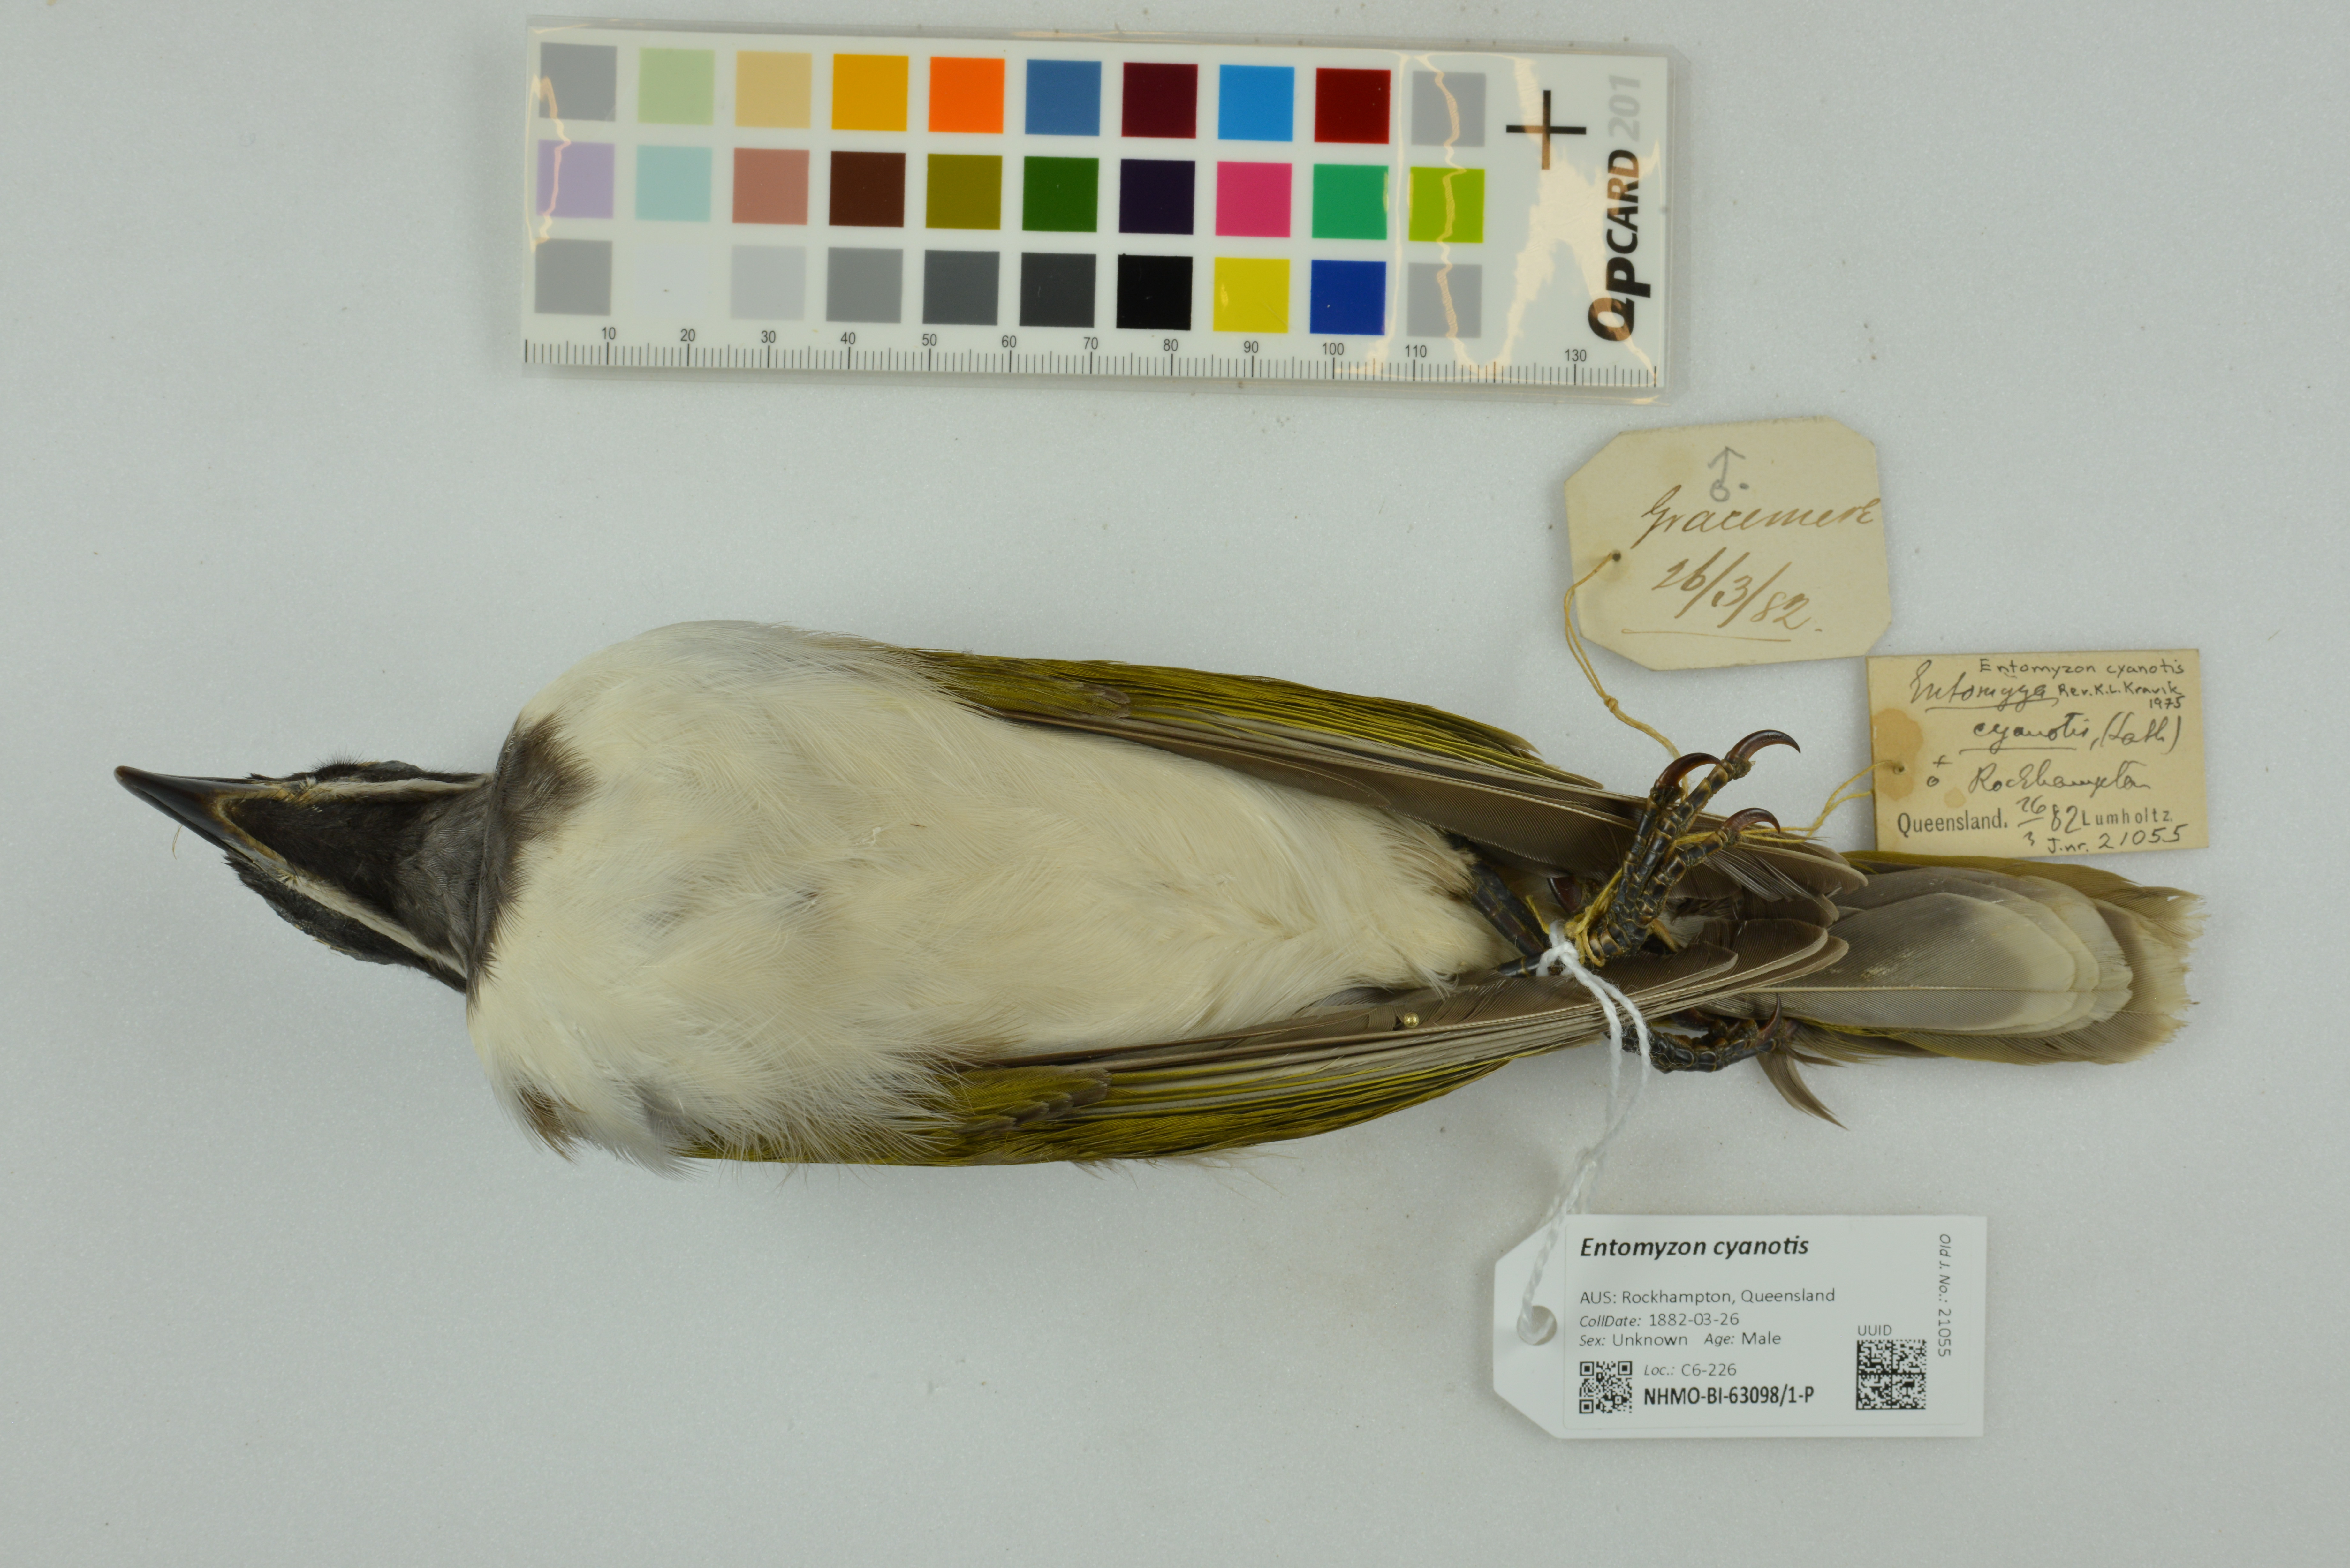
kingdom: Animalia
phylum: Chordata
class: Aves
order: Passeriformes
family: Meliphagidae
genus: Entomyzon
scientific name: Entomyzon cyanotis
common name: Blue-faced honeyeater
